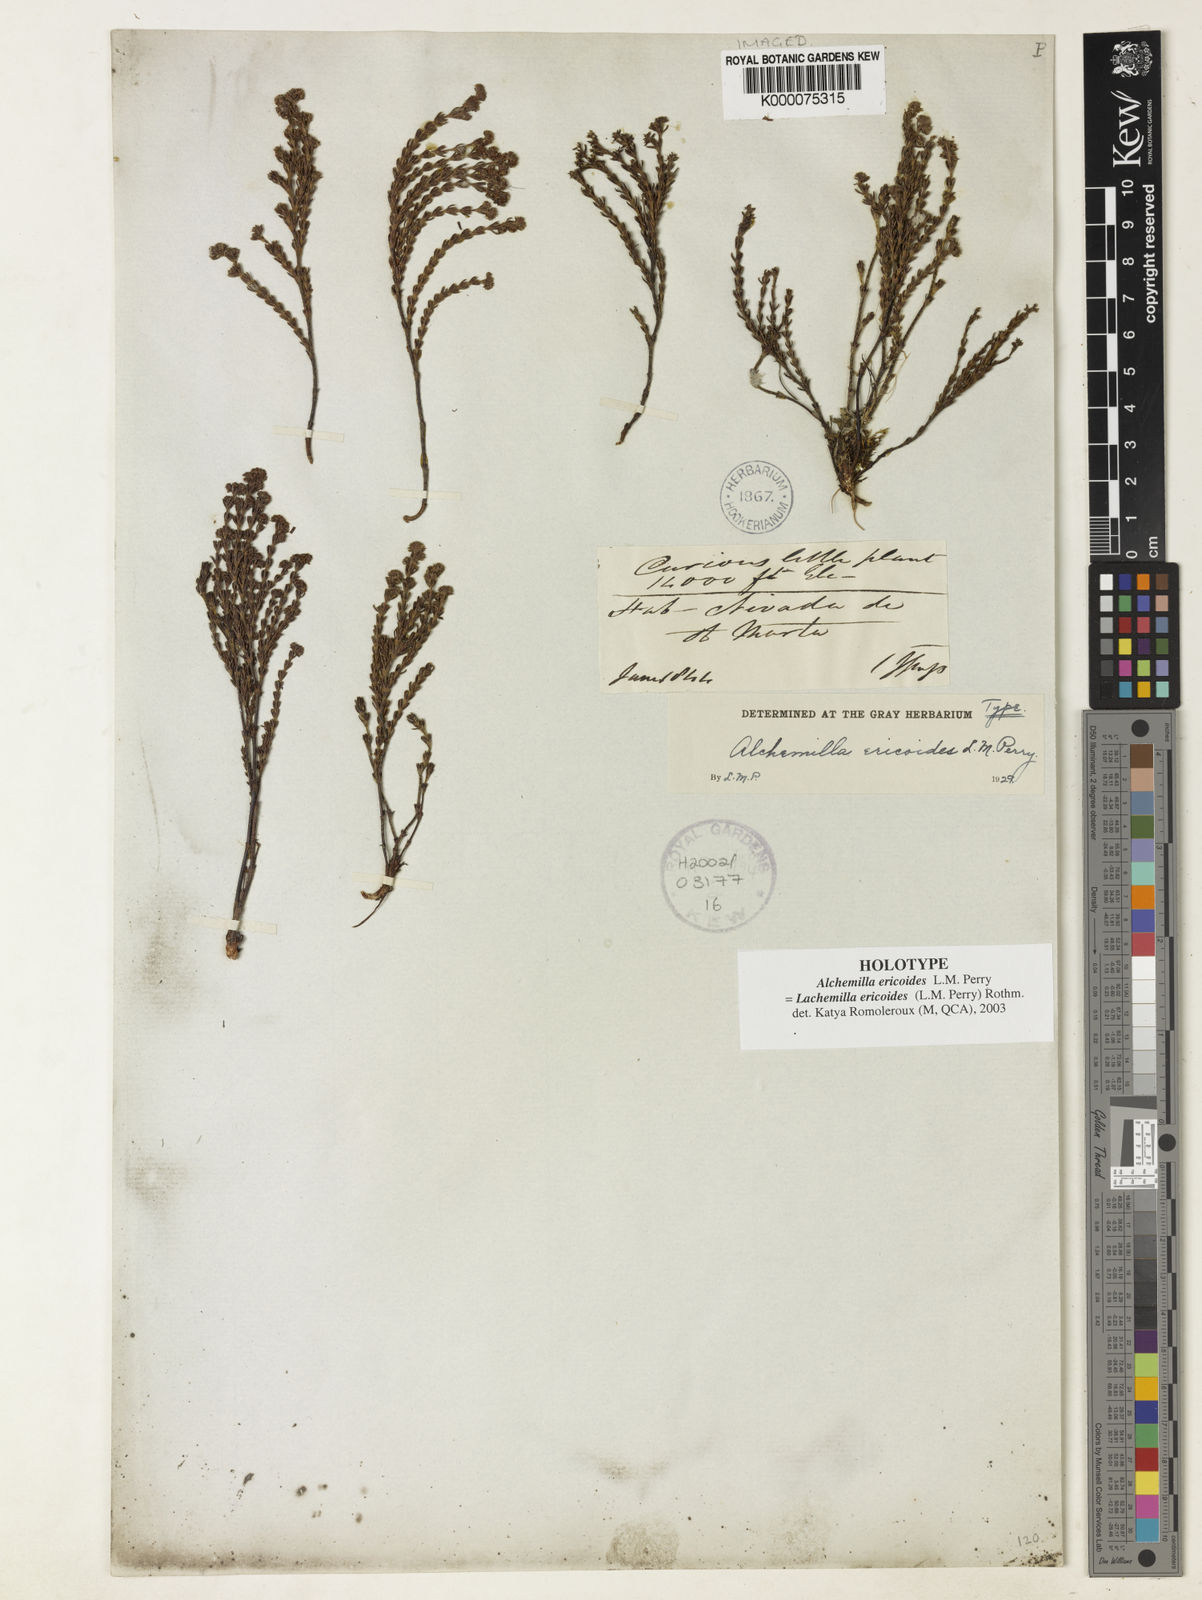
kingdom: Plantae
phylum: Tracheophyta
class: Magnoliopsida
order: Rosales
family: Rosaceae
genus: Lachemilla
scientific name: Lachemilla ericoides
